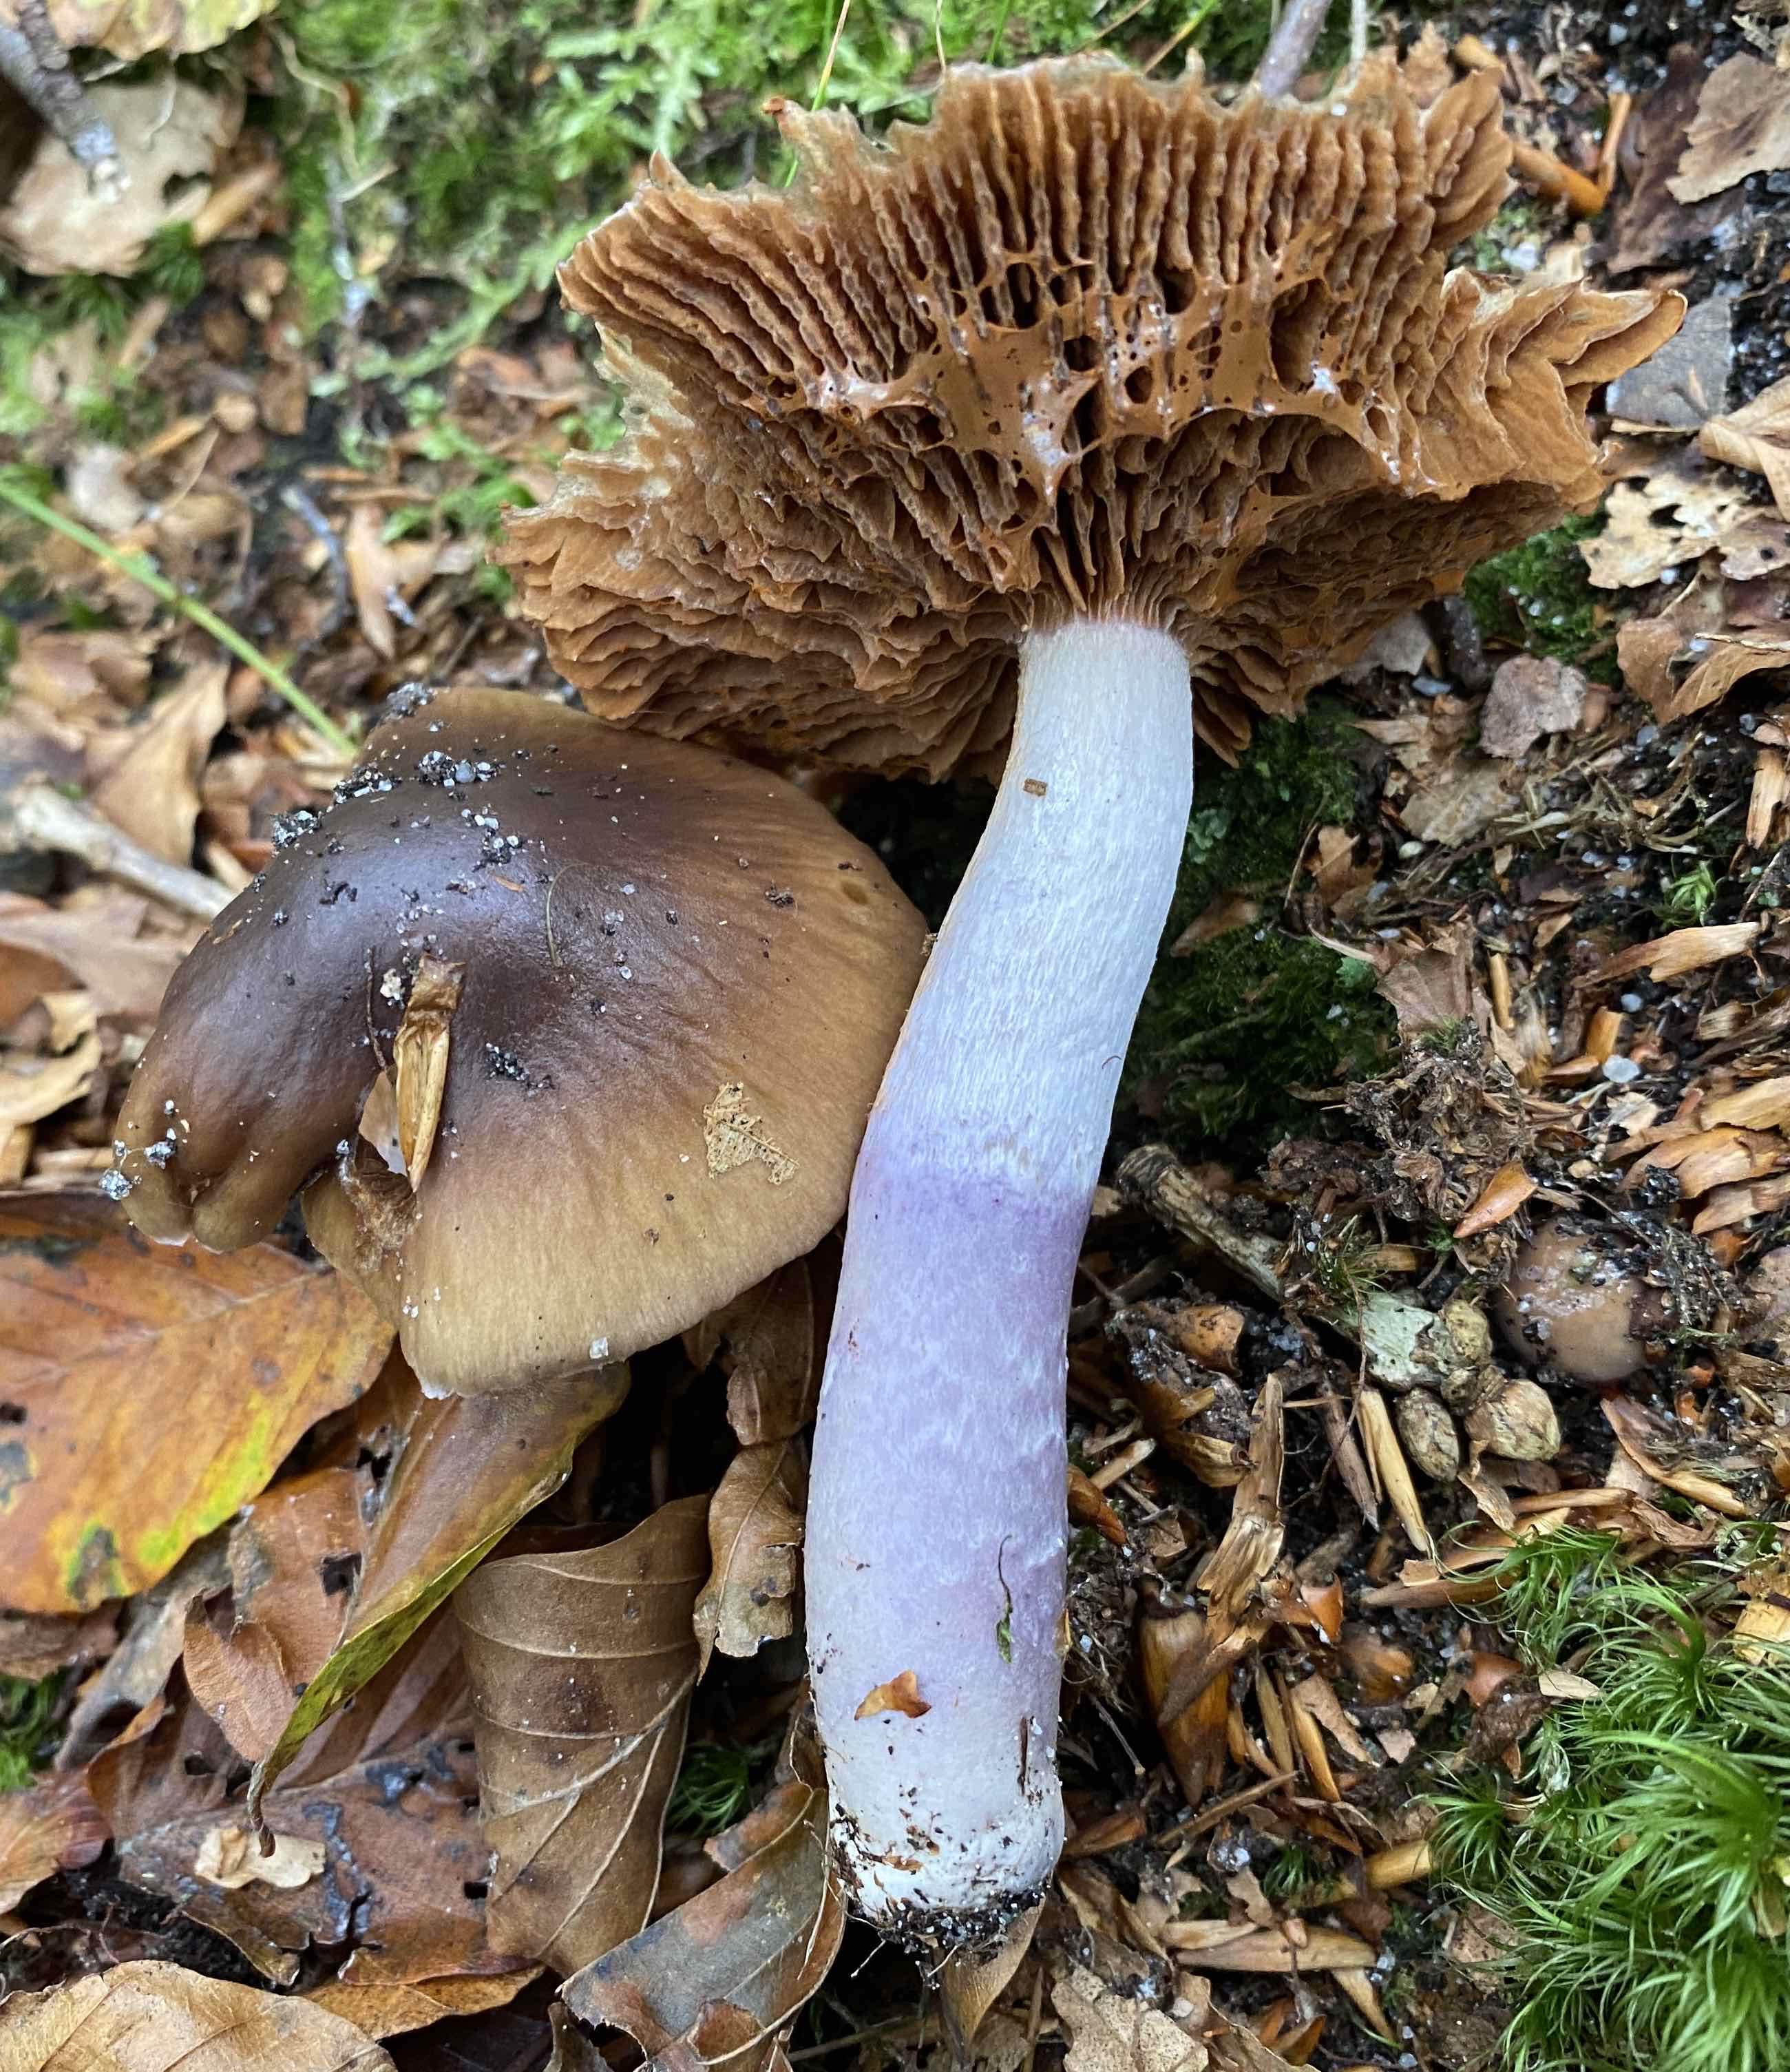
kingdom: Fungi
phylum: Basidiomycota
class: Agaricomycetes
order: Agaricales
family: Cortinariaceae
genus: Cortinarius
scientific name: Cortinarius elatior
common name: høj slørhat
